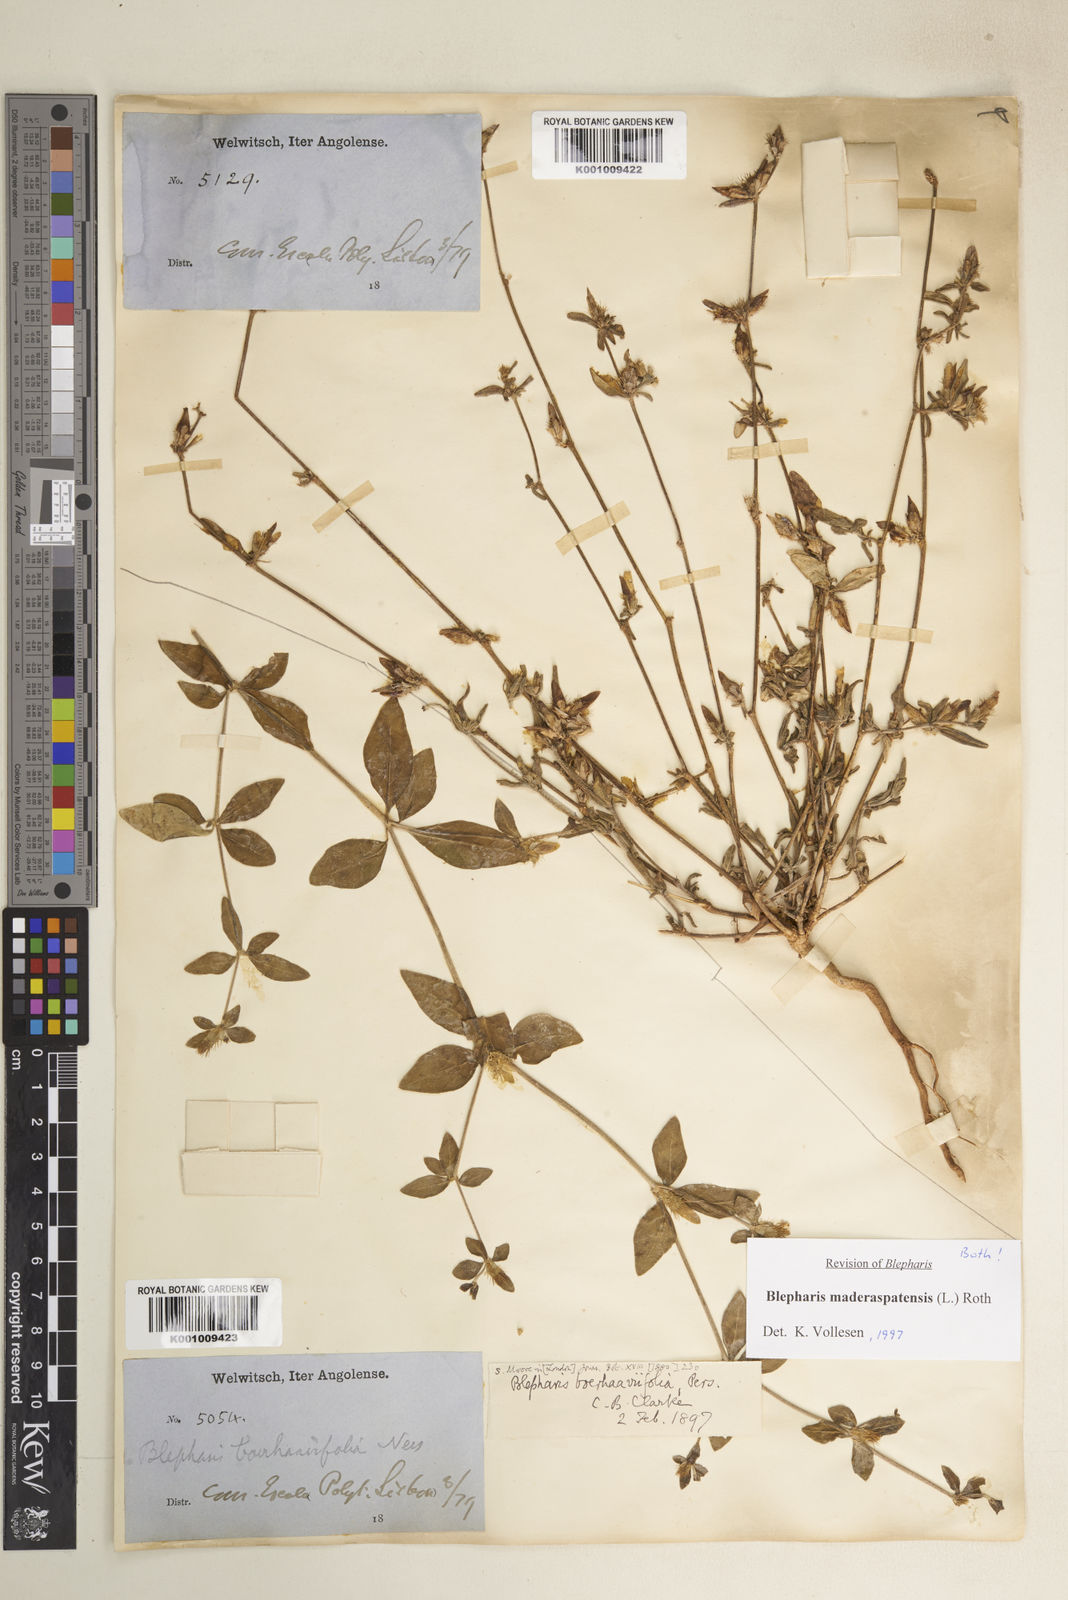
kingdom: Plantae
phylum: Tracheophyta
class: Magnoliopsida
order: Lamiales
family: Acanthaceae
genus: Blepharis
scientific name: Blepharis maderaspatensis
